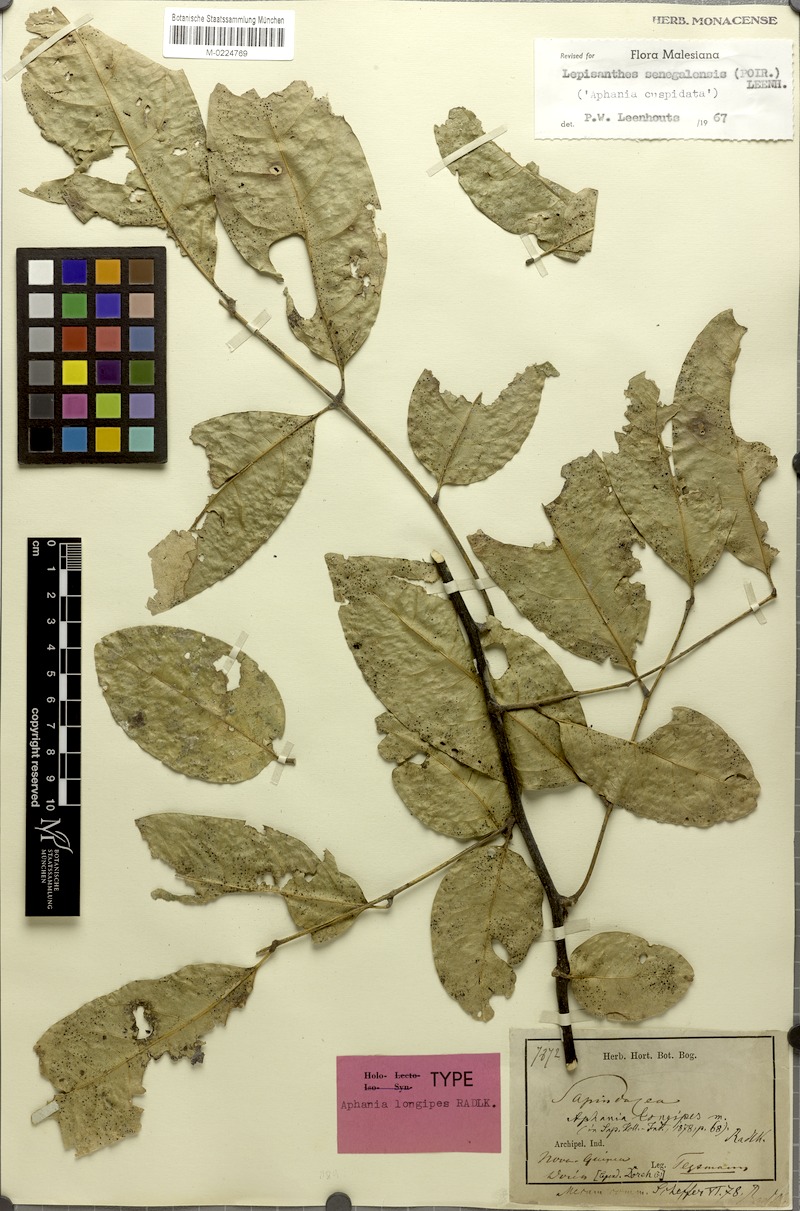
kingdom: Plantae
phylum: Tracheophyta
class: Magnoliopsida
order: Sapindales
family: Sapindaceae
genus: Lepisanthes
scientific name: Lepisanthes senegalensis
